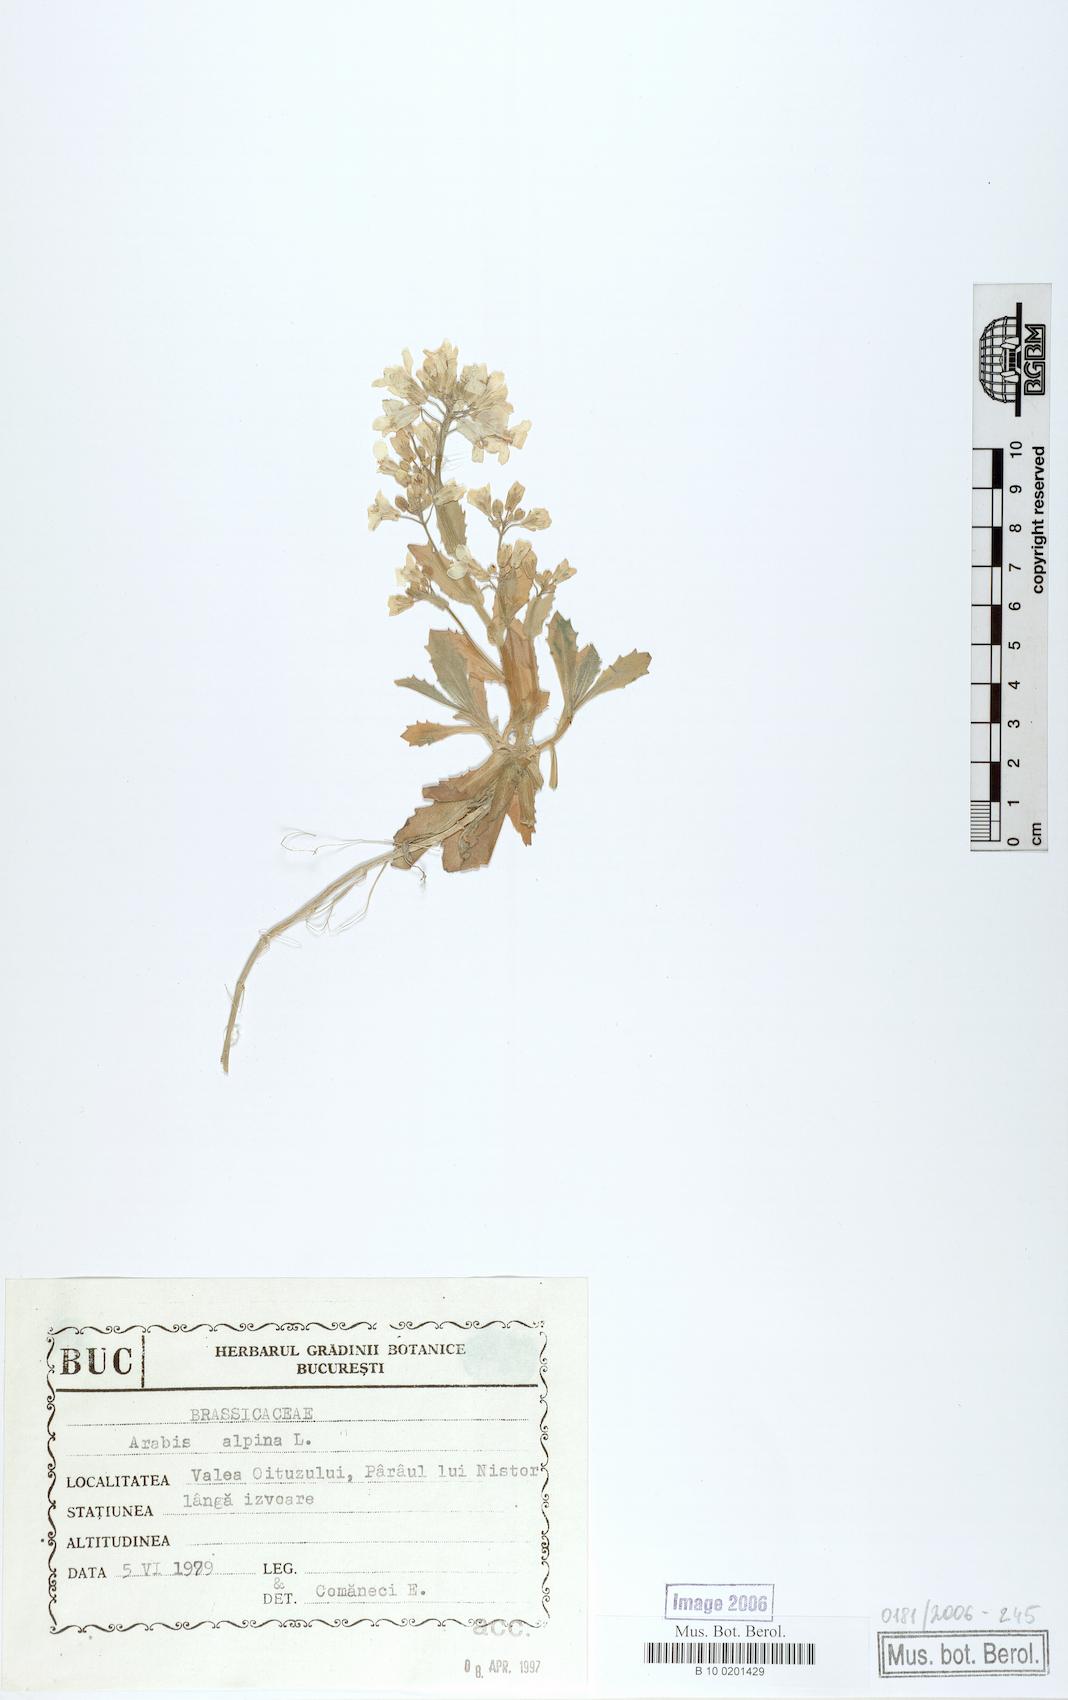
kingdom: Plantae
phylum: Tracheophyta
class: Magnoliopsida
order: Brassicales
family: Brassicaceae
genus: Arabis
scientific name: Arabis alpina
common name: Alpine rock-cress
